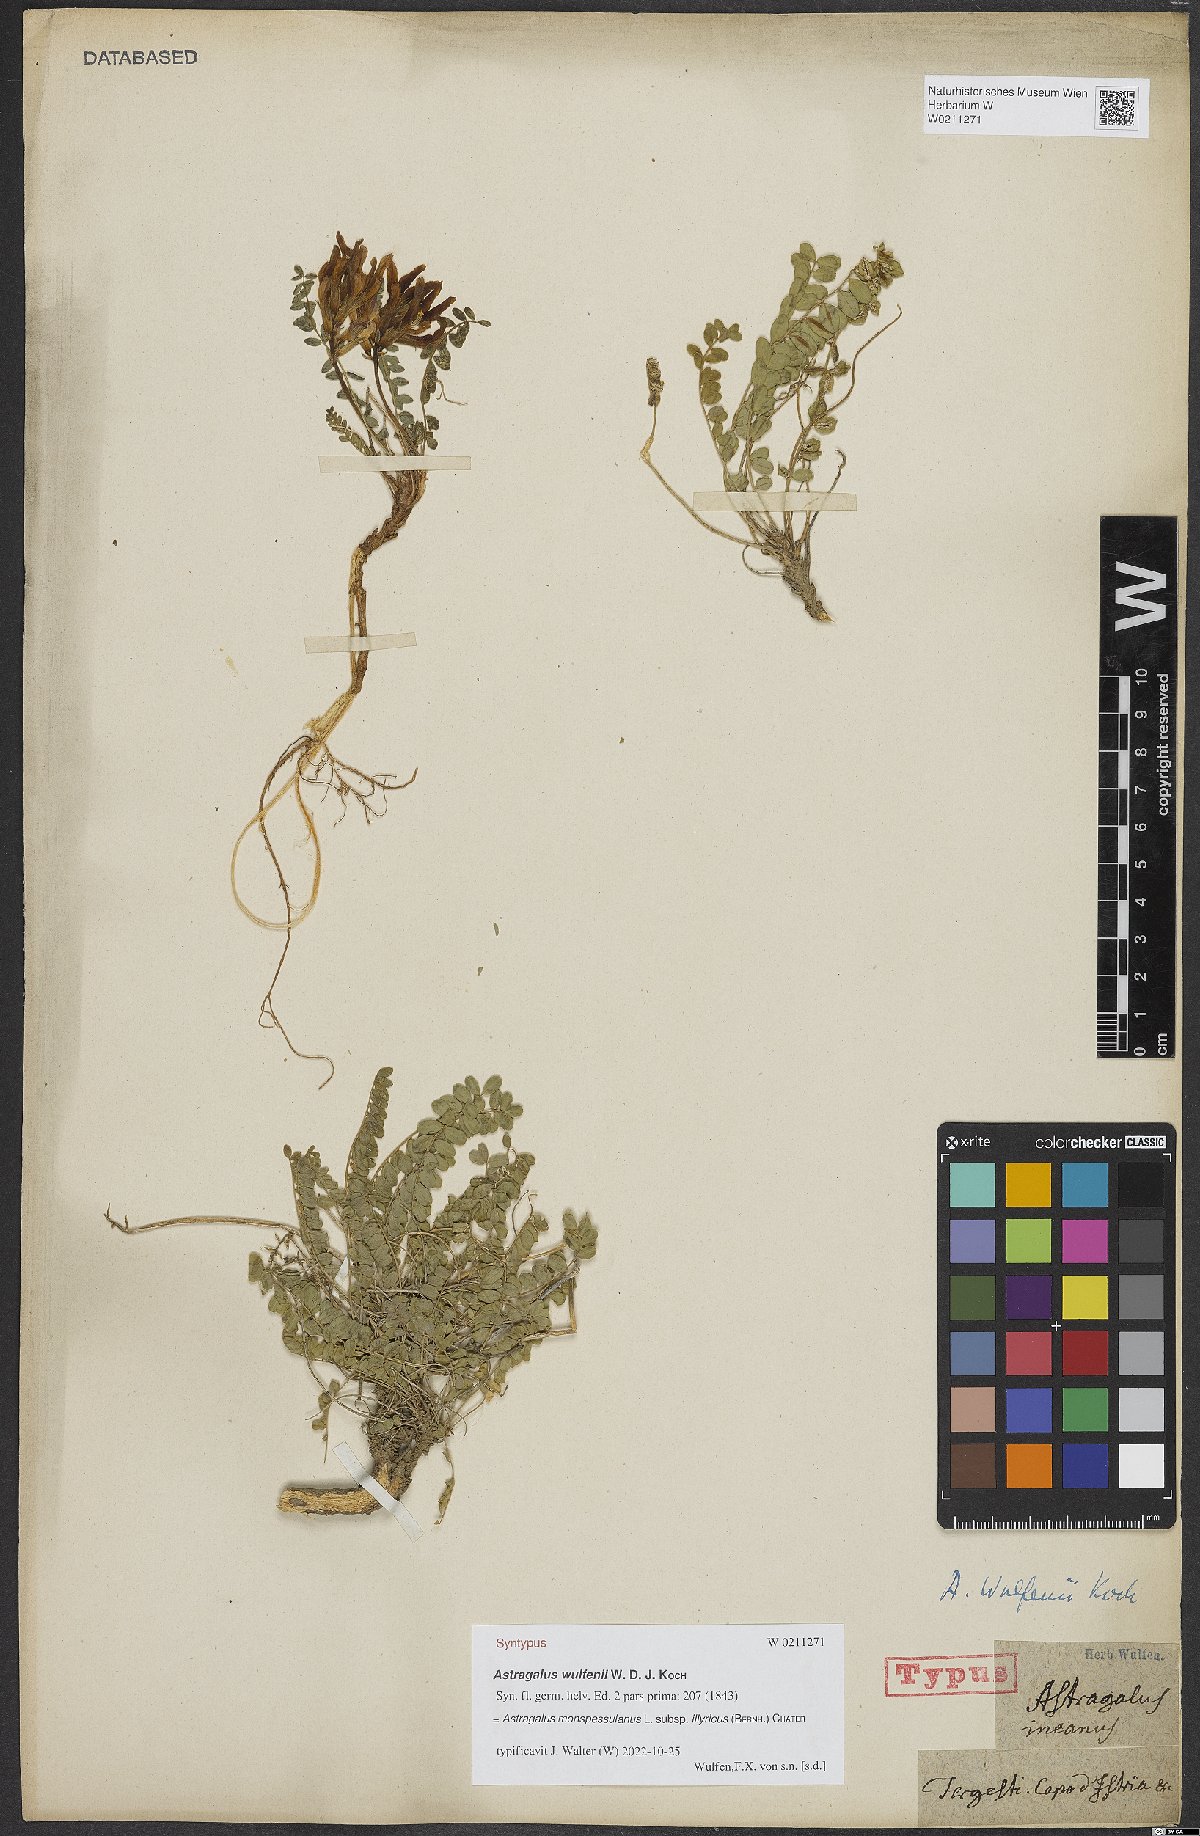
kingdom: Plantae
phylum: Tracheophyta
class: Magnoliopsida
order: Fabales
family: Fabaceae
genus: Astragalus
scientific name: Astragalus monspessulanus
